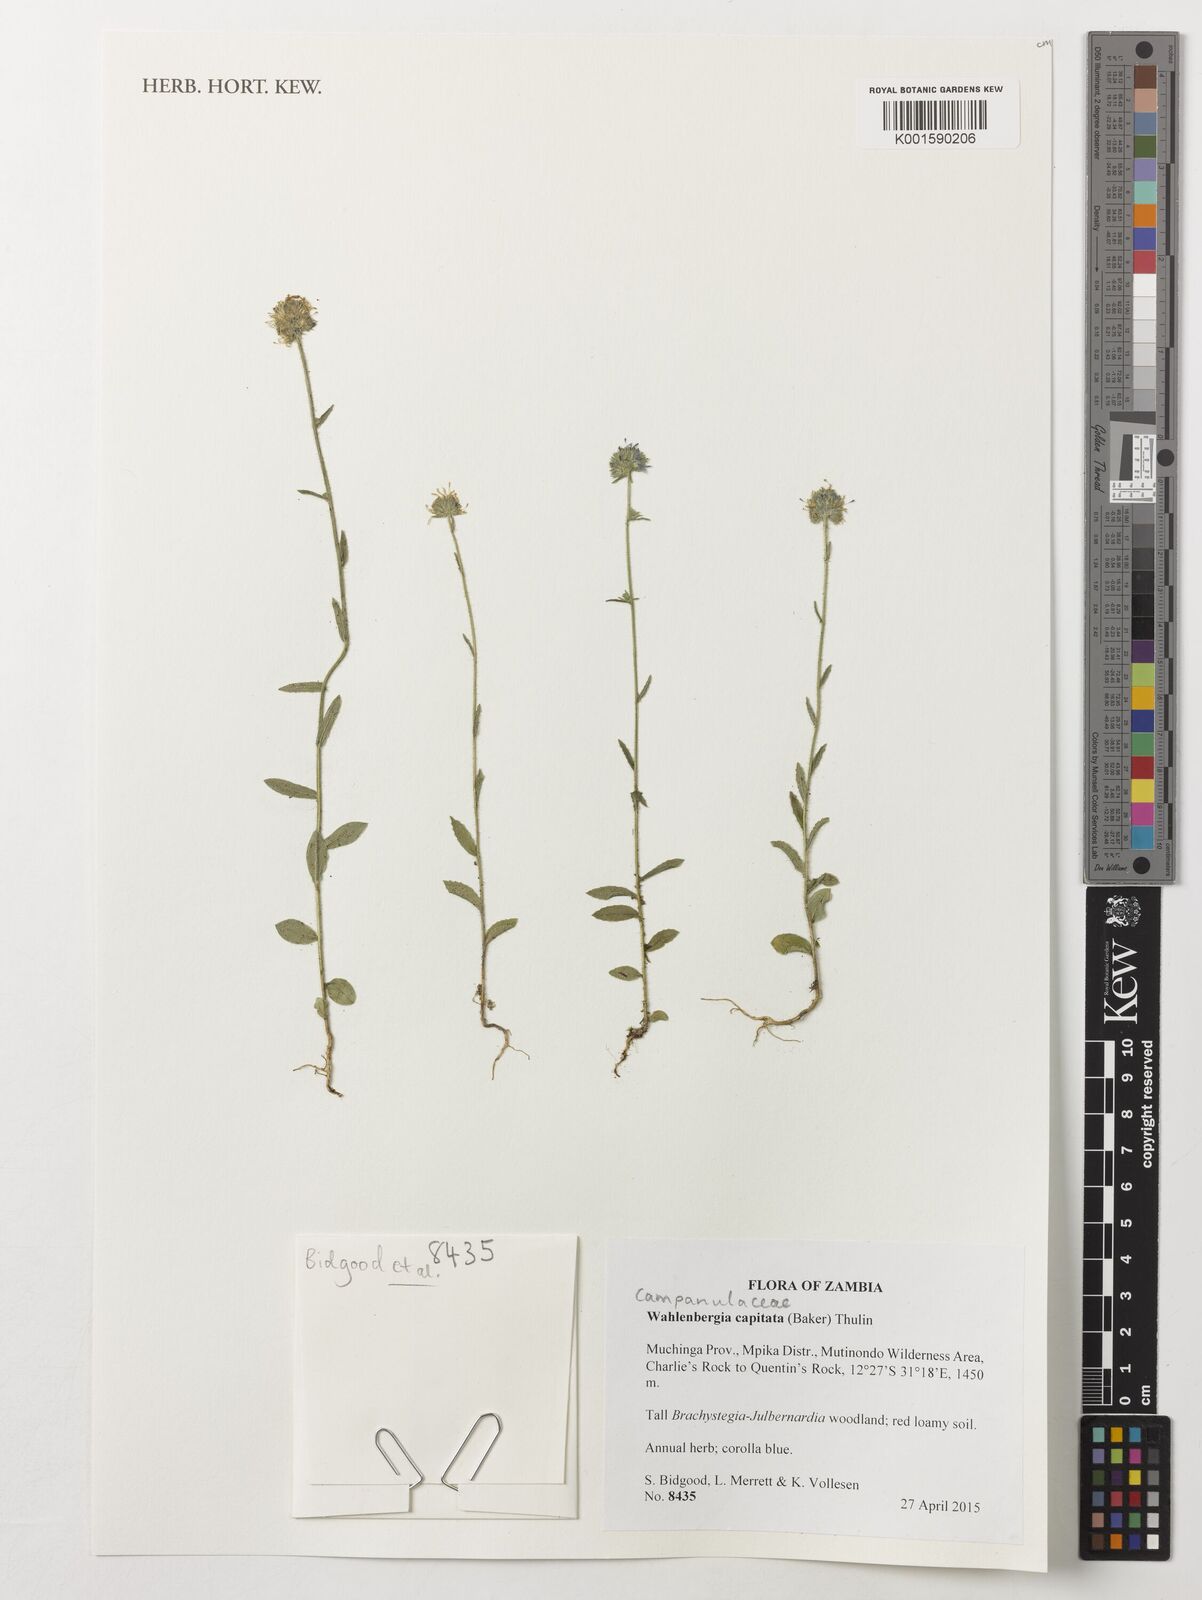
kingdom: Plantae
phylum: Tracheophyta
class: Magnoliopsida
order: Asterales
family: Campanulaceae
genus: Wahlenbergia
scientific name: Wahlenbergia capitata
